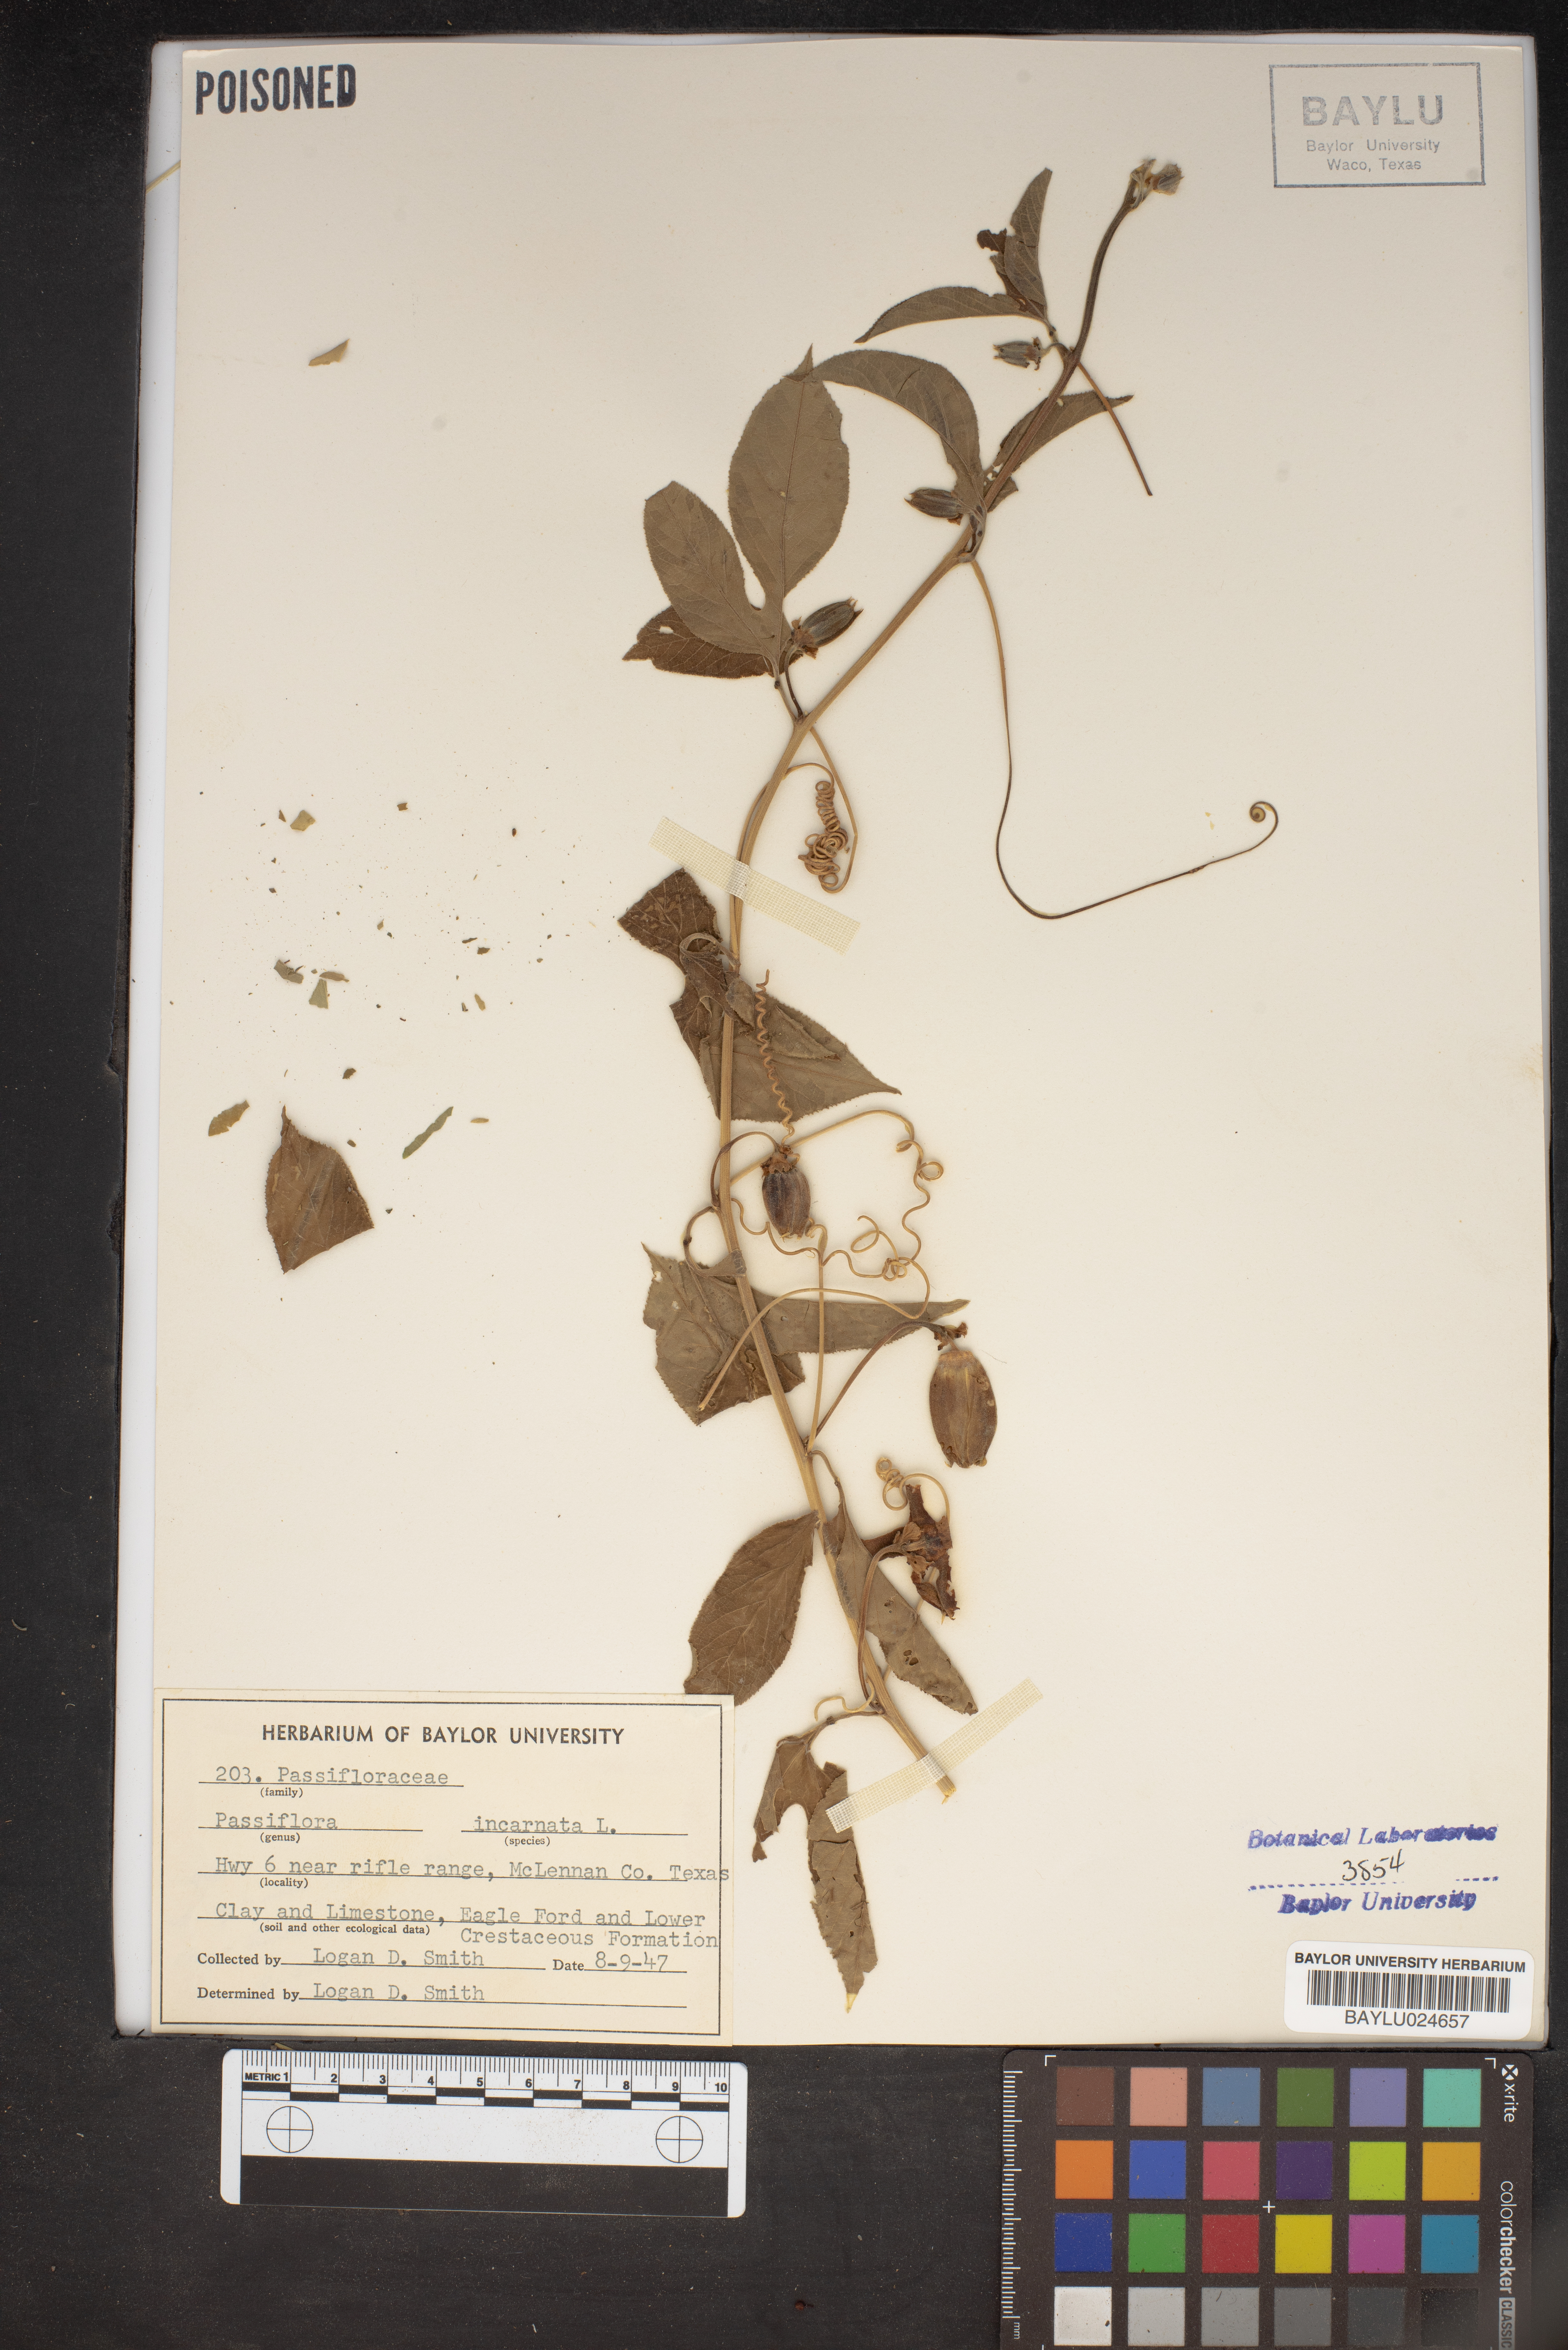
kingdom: Plantae
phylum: Tracheophyta
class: Magnoliopsida
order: Malpighiales
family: Passifloraceae
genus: Passiflora
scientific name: Passiflora incarnata
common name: Apricot-vine
